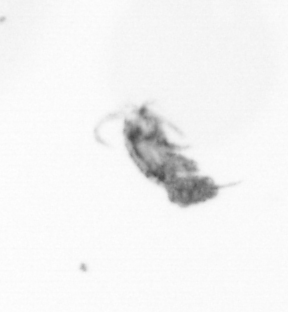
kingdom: Animalia
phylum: Arthropoda
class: Copepoda
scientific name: Copepoda
